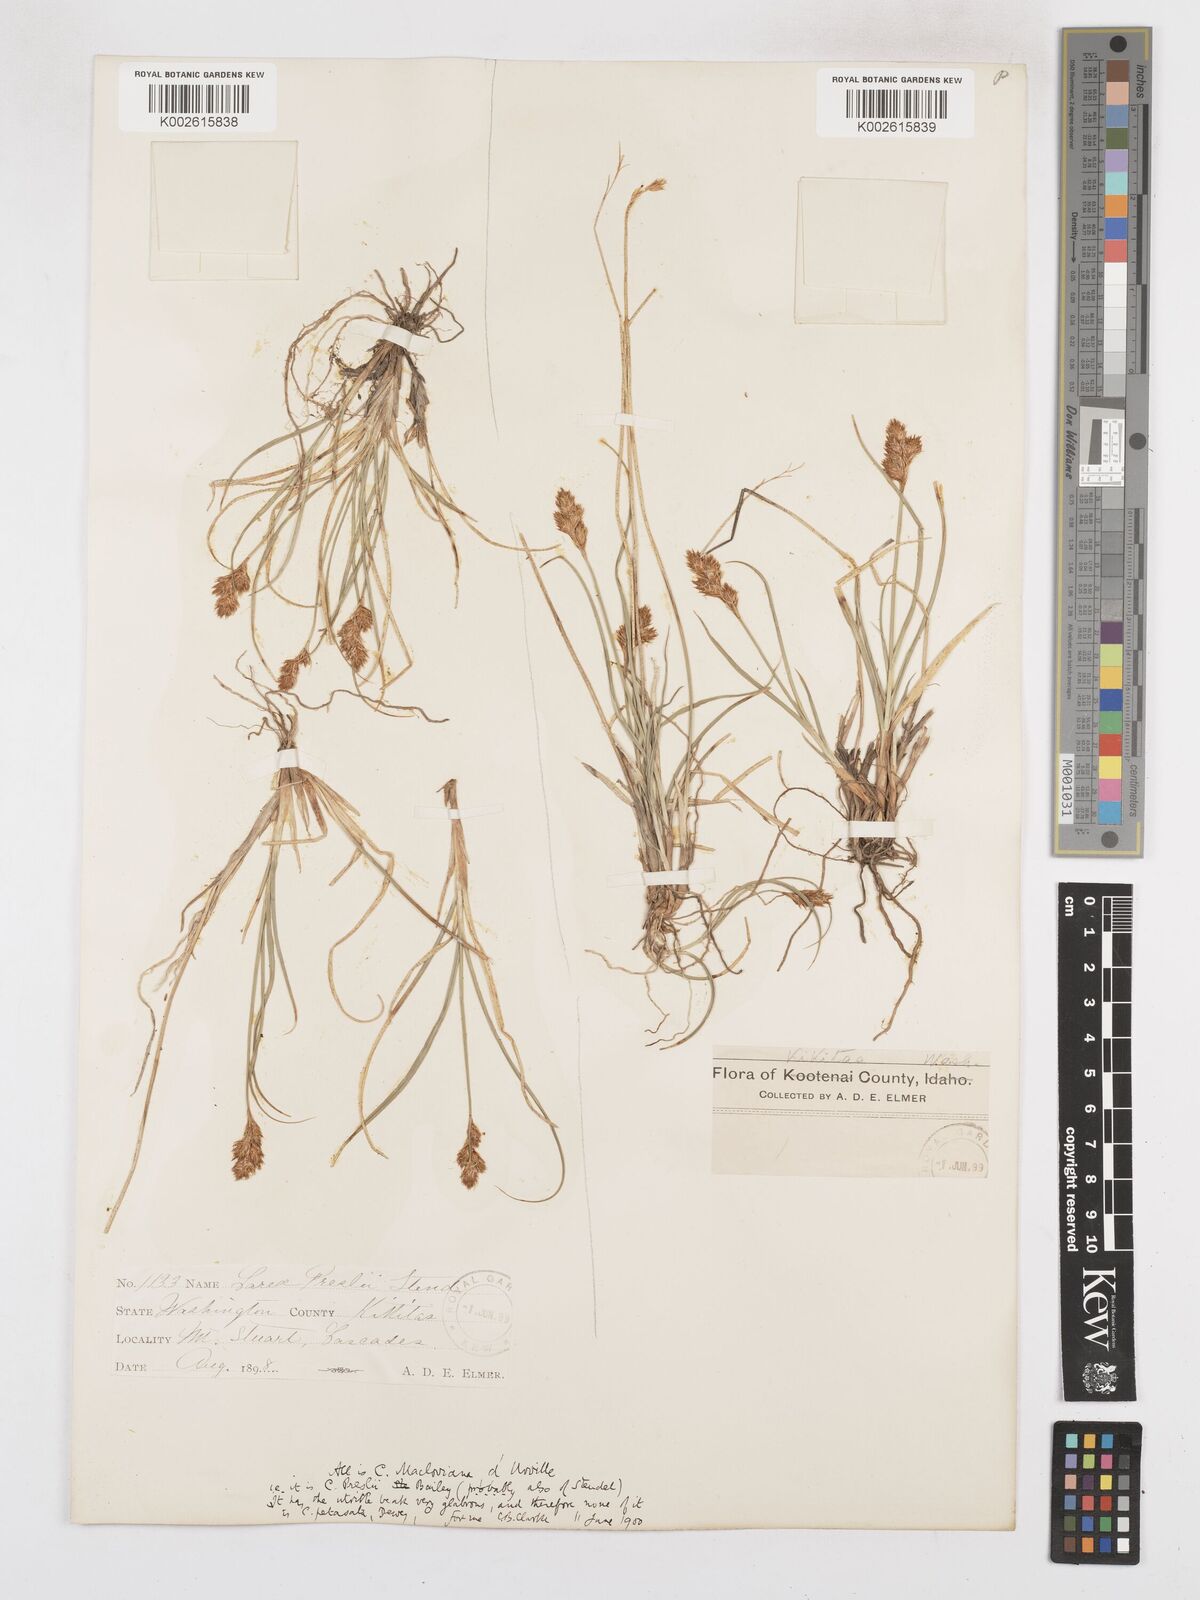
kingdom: Plantae
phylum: Tracheophyta
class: Liliopsida
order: Poales
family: Cyperaceae
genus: Carex
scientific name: Carex petasata
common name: Liddon's sedge
